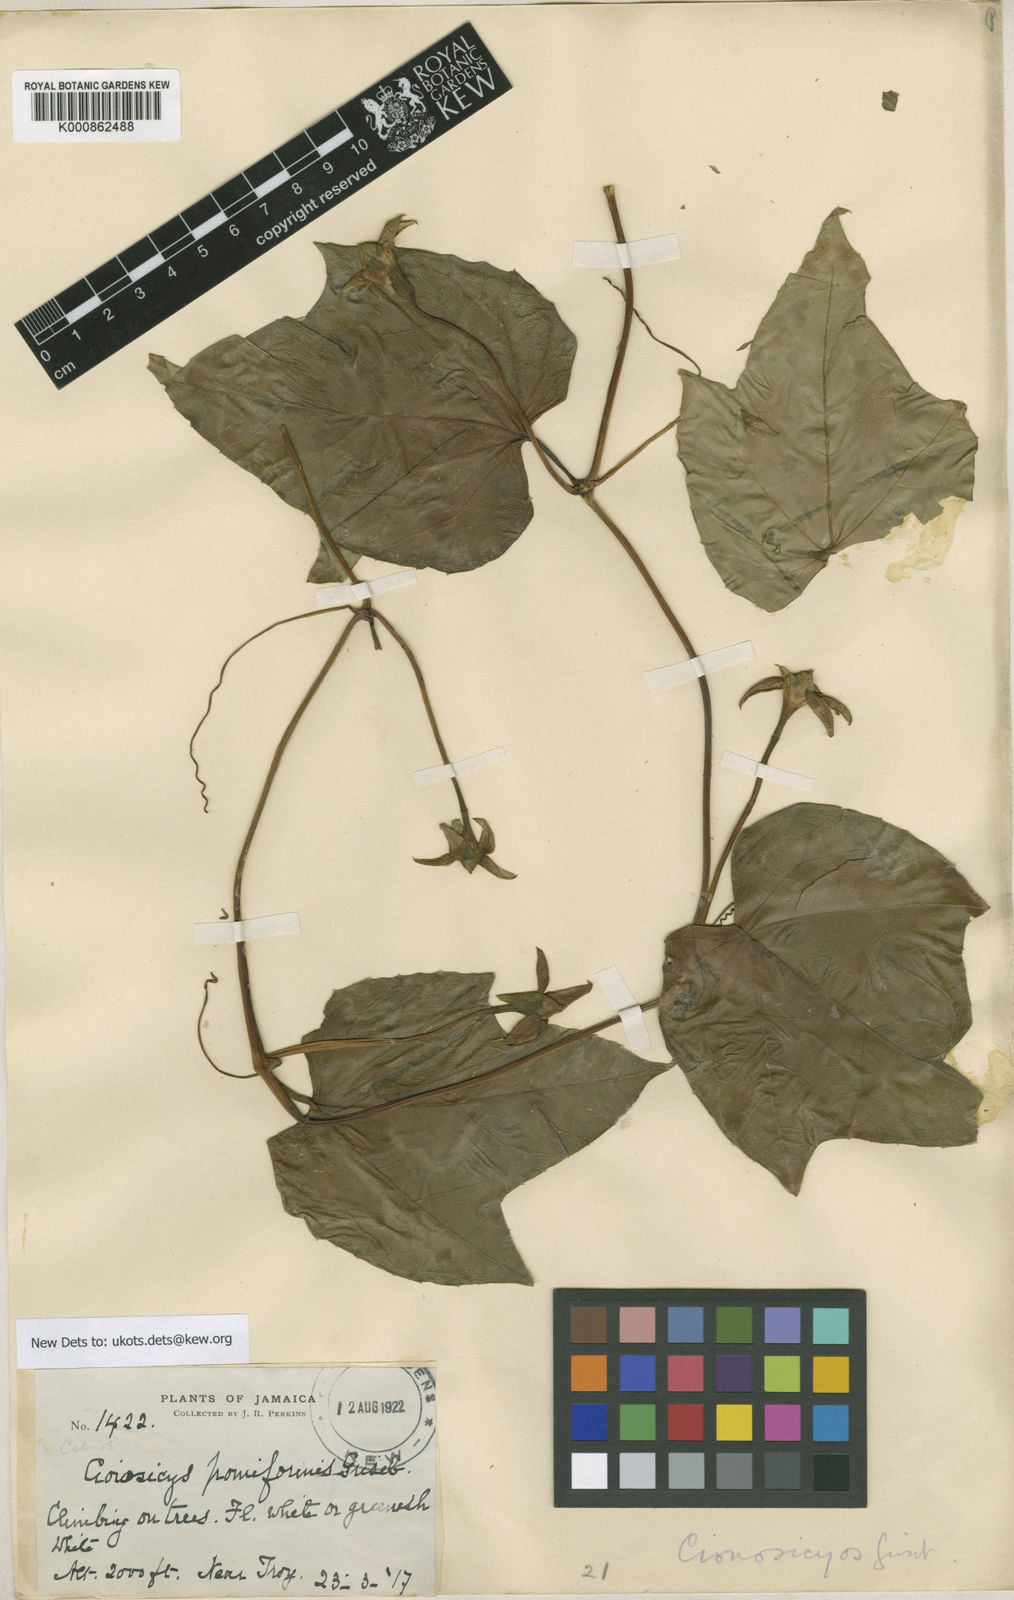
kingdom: Plantae
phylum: Tracheophyta
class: Magnoliopsida
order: Cucurbitales
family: Cucurbitaceae
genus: Cionosicys
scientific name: Cionosicys
